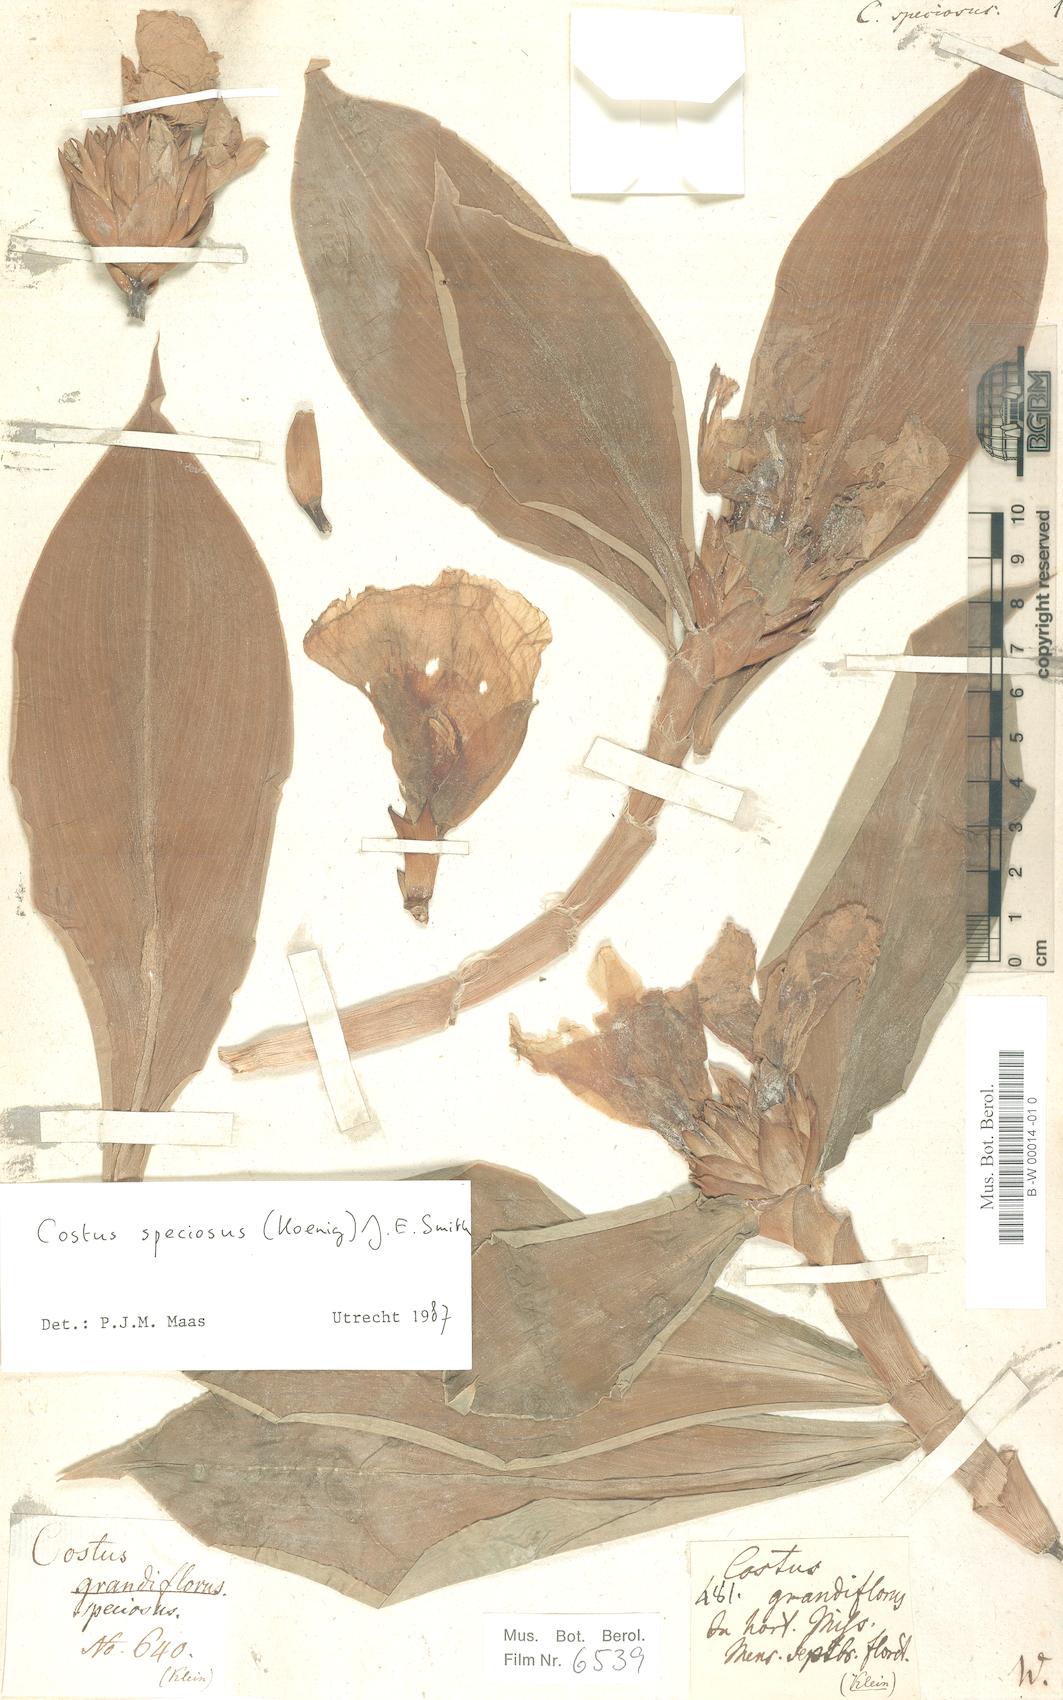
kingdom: Plantae
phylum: Tracheophyta
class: Liliopsida
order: Zingiberales
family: Costaceae
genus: Hellenia
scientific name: Hellenia speciosa
